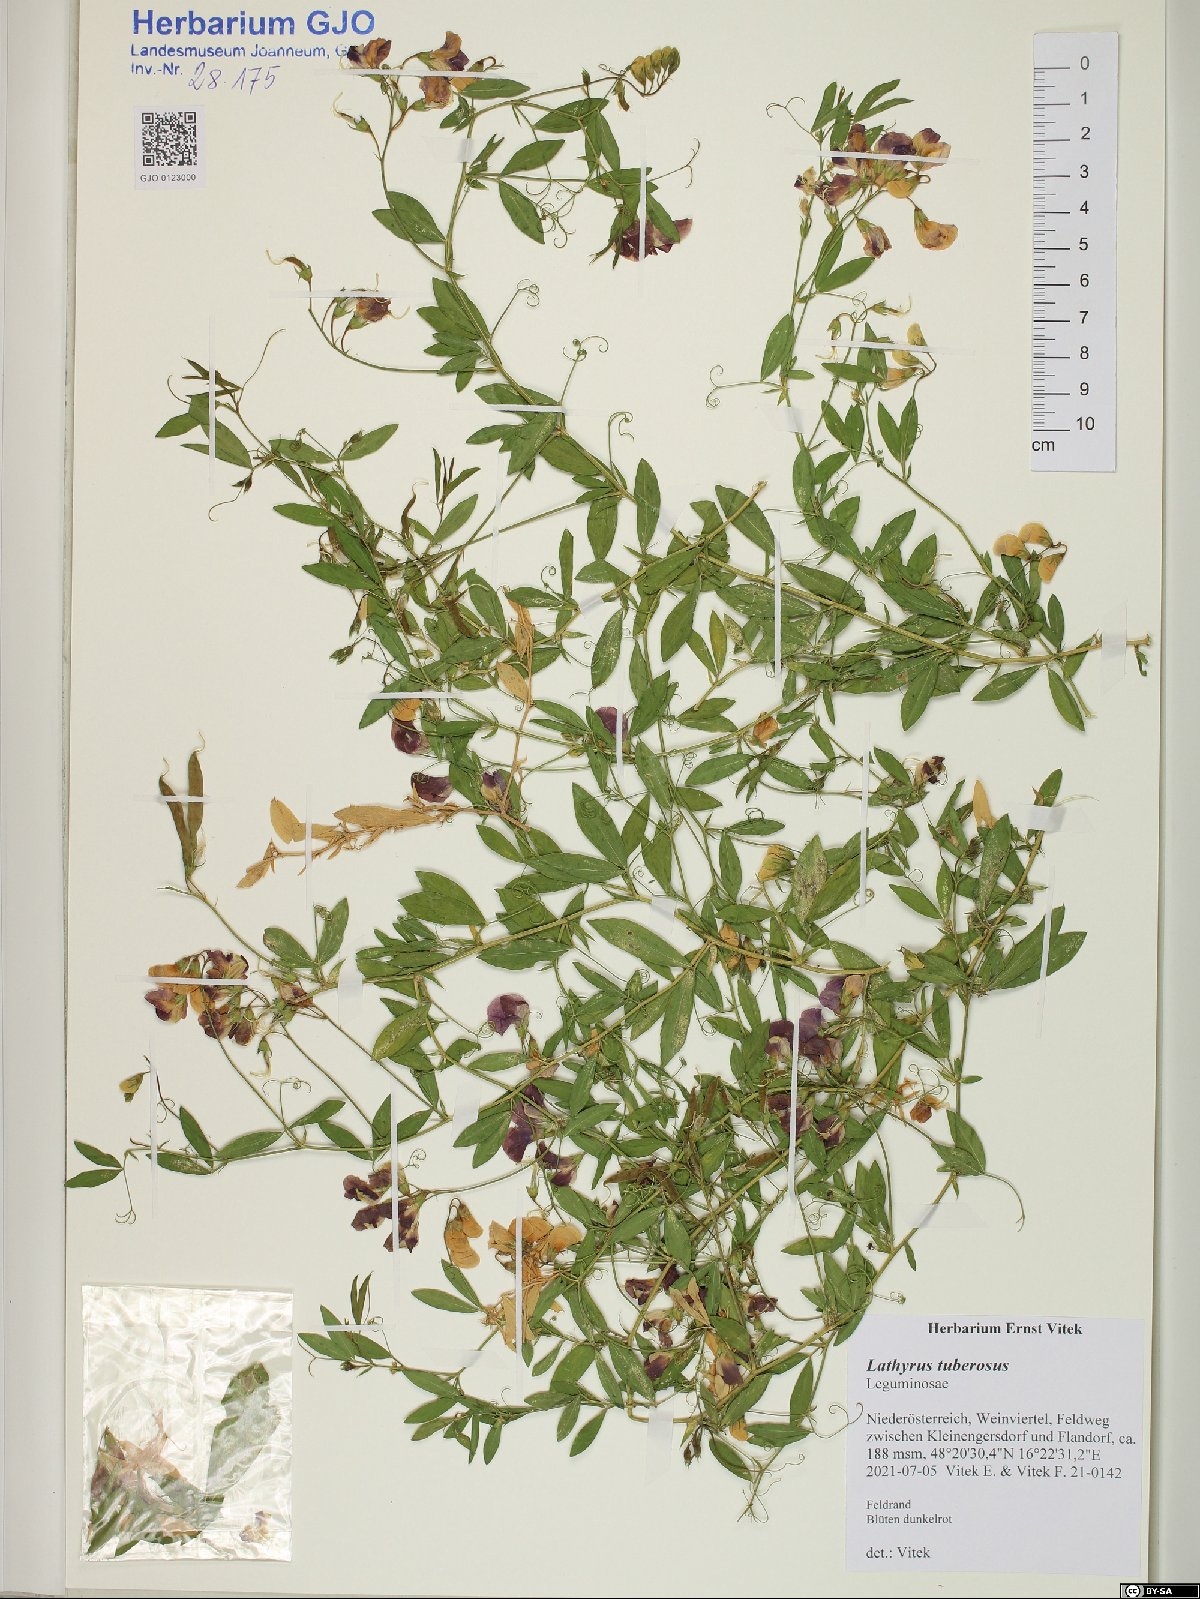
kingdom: Plantae
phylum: Tracheophyta
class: Magnoliopsida
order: Fabales
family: Fabaceae
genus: Lathyrus
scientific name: Lathyrus tuberosus
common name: Tuberous pea
